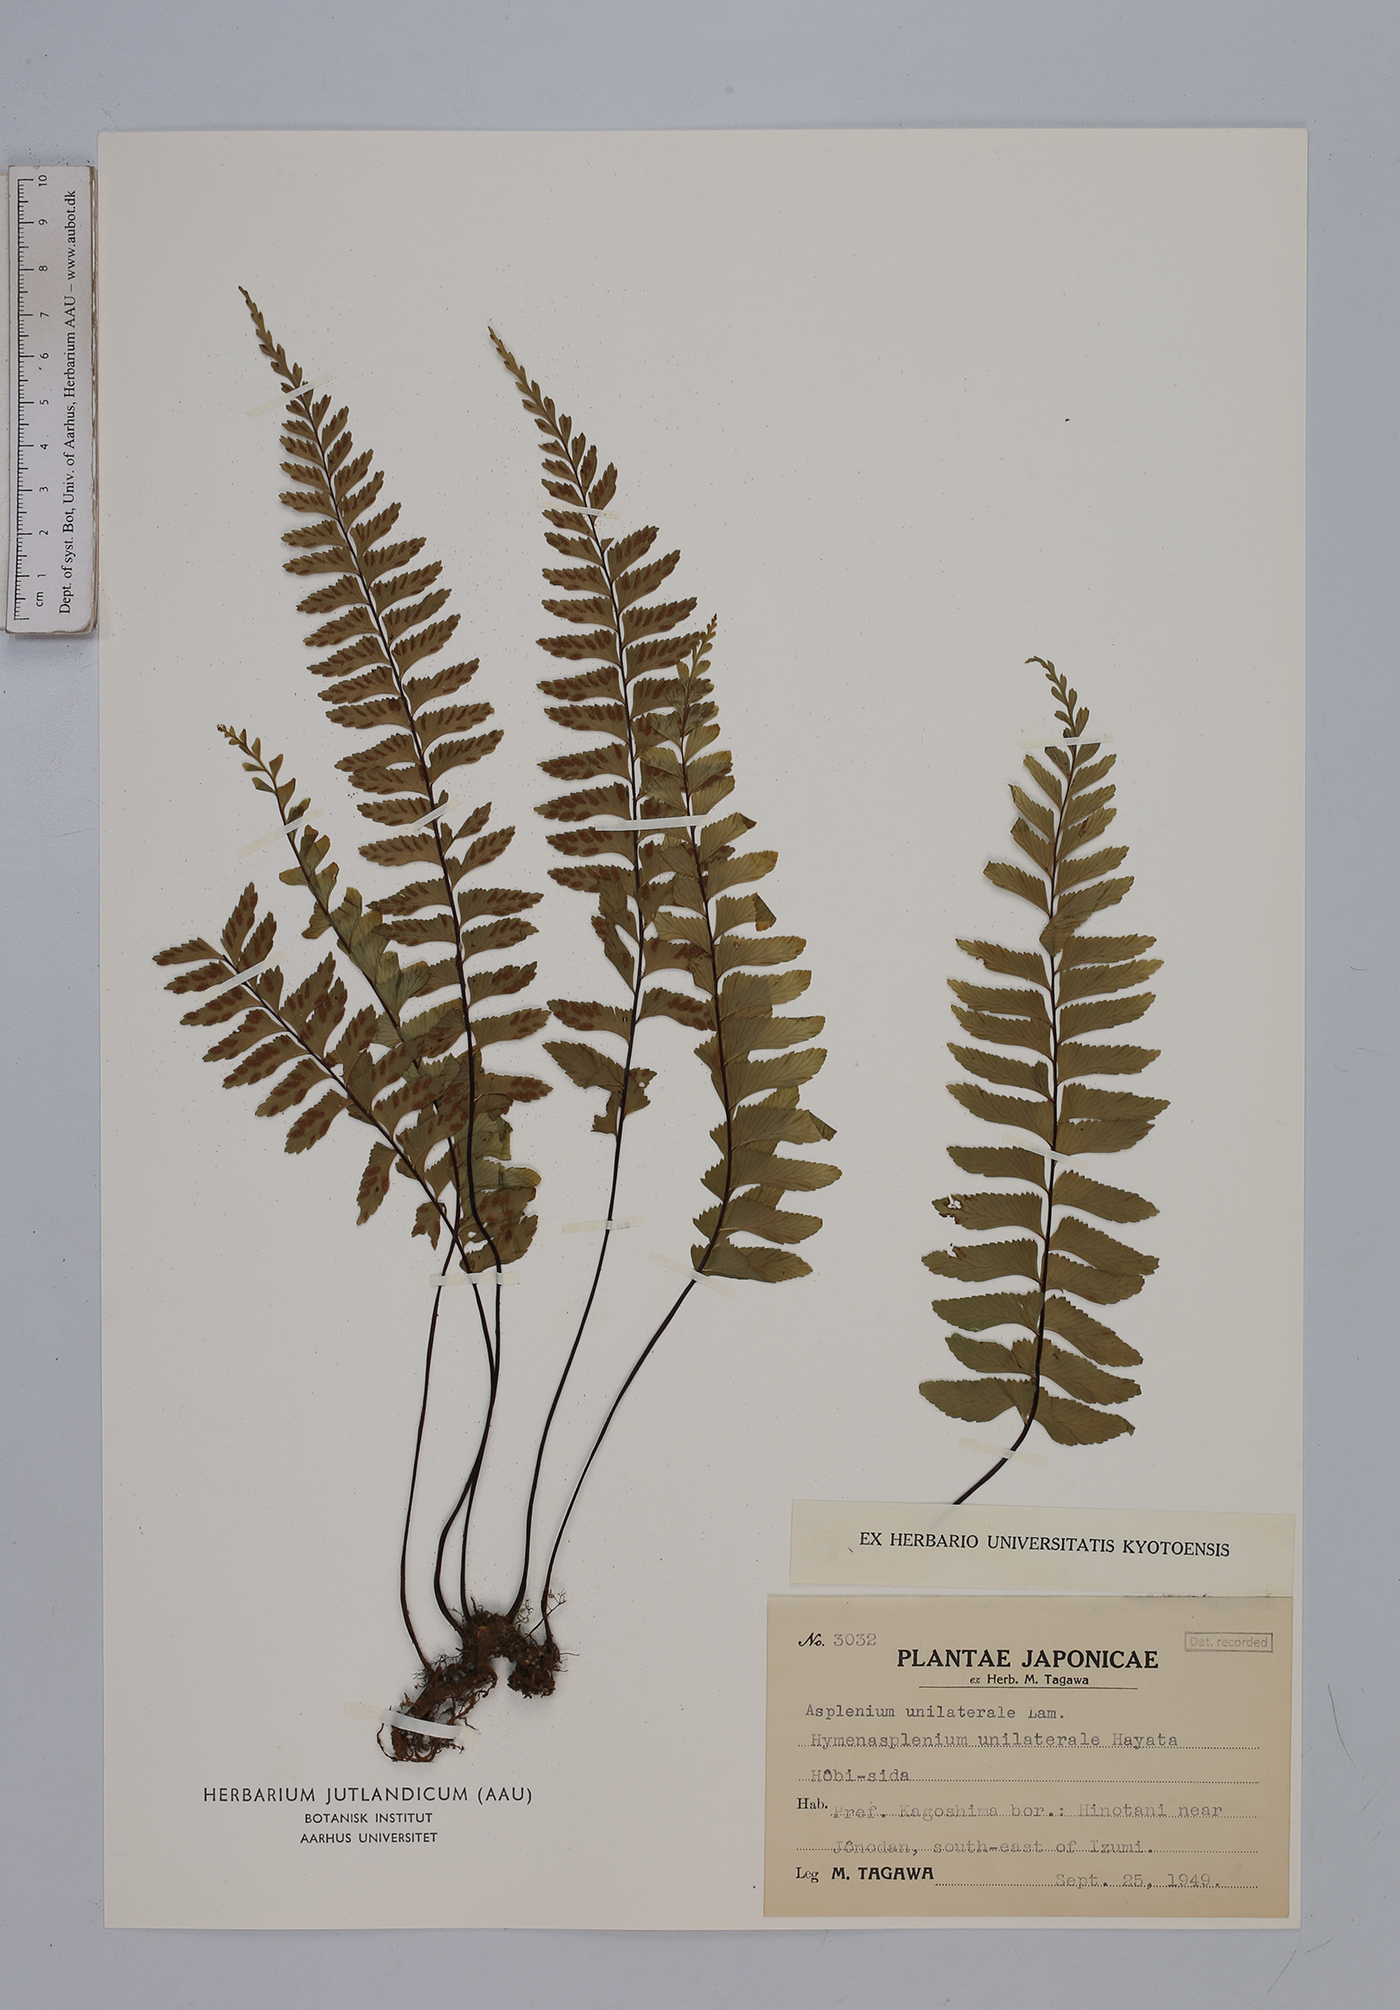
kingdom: Plantae
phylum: Tracheophyta
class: Polypodiopsida
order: Polypodiales
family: Aspleniaceae
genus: Hymenasplenium
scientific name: Hymenasplenium unilaterale
